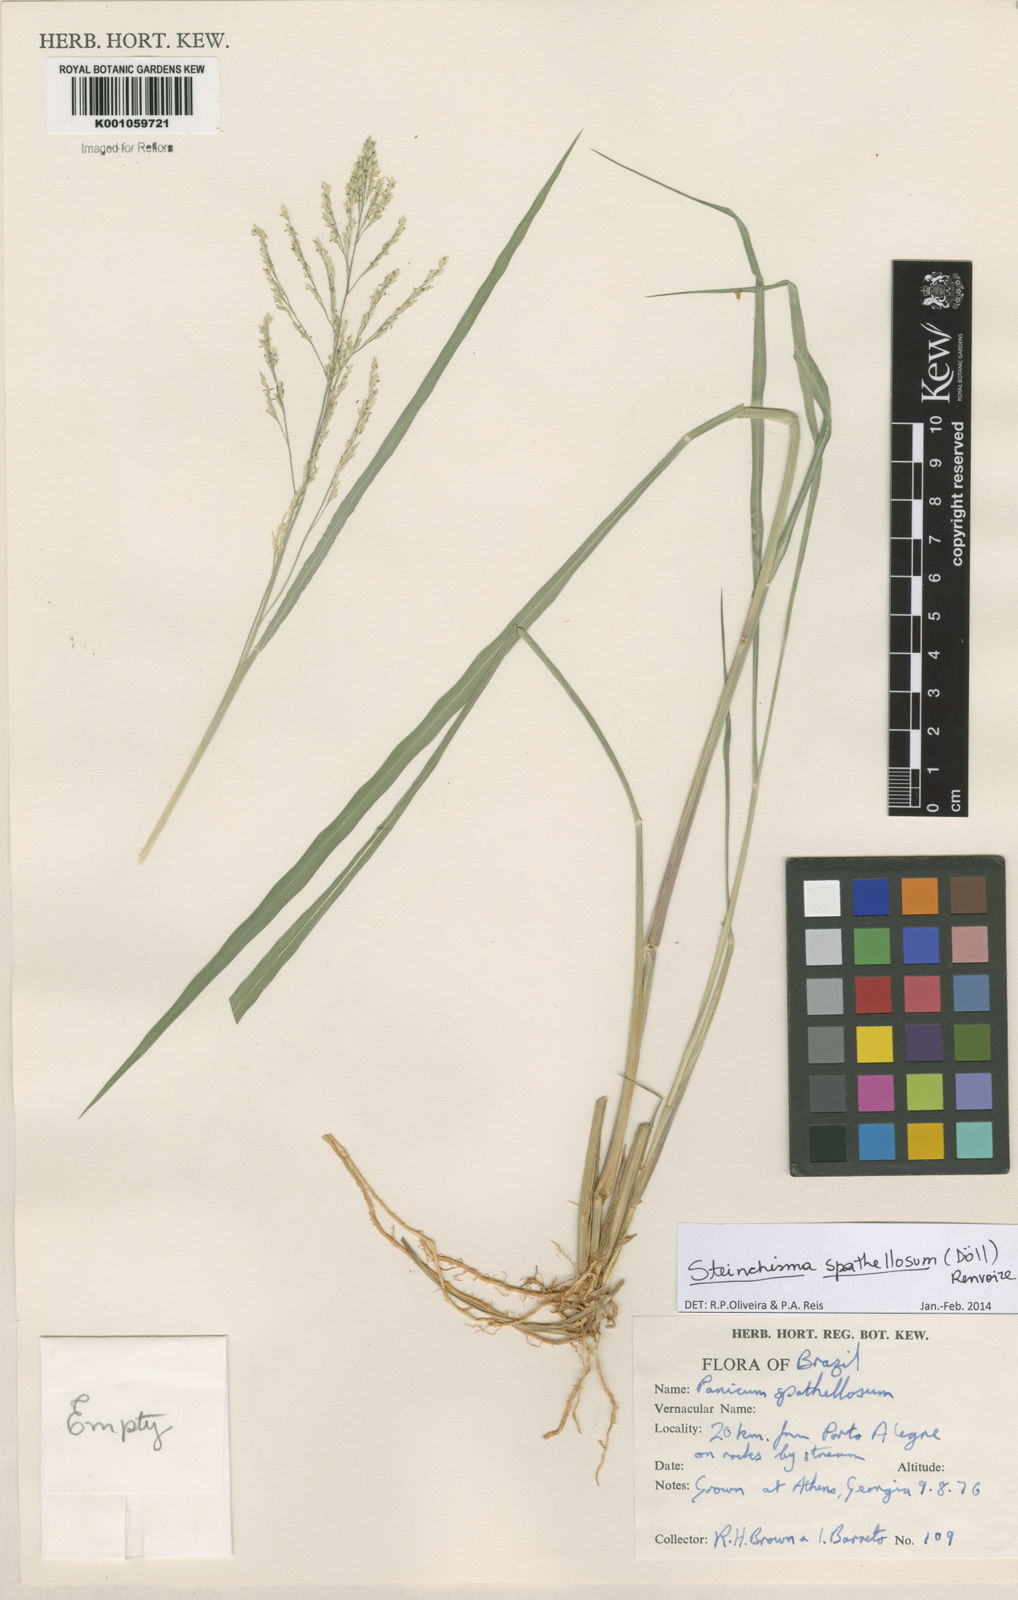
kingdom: Plantae
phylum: Tracheophyta
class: Liliopsida
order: Poales
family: Poaceae
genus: Steinchisma
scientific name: Steinchisma
